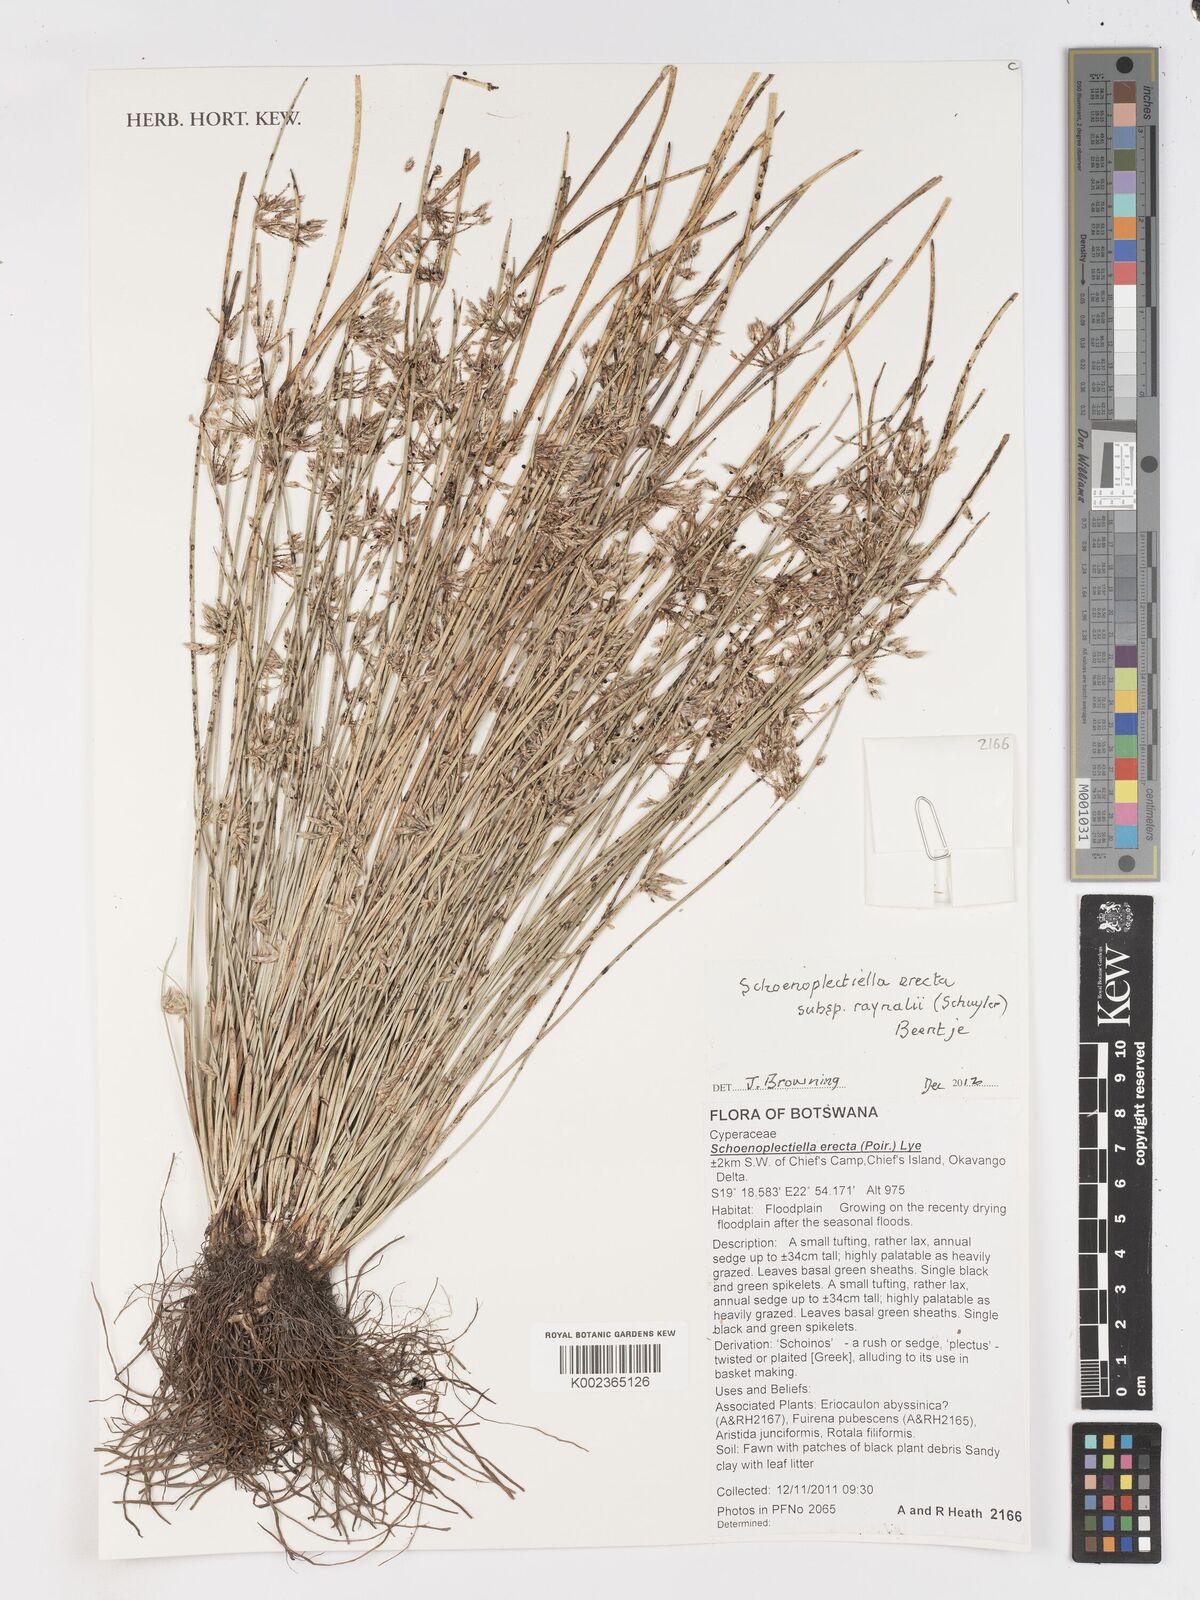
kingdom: Plantae
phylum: Tracheophyta
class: Liliopsida
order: Poales
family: Cyperaceae
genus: Schoenoplectiella
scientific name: Schoenoplectiella erecta
